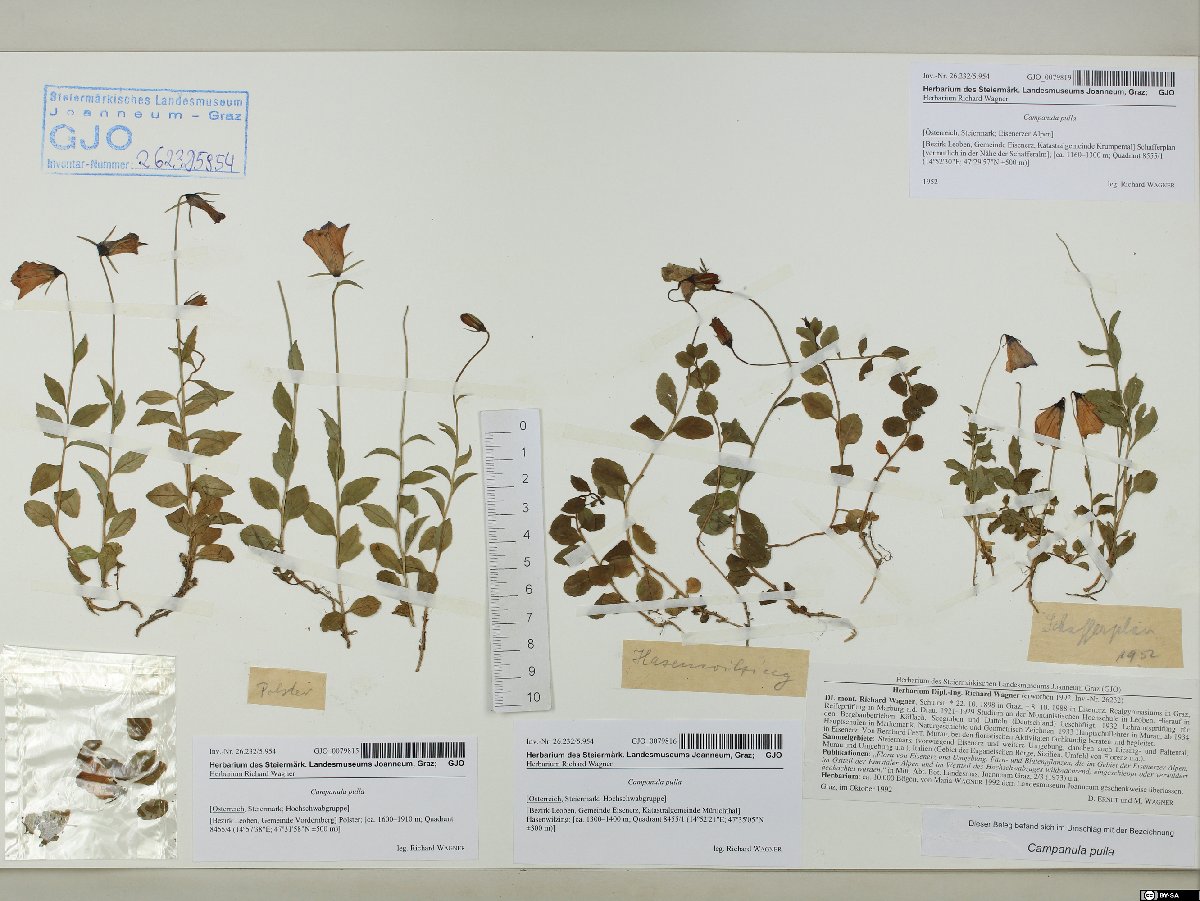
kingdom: Plantae
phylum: Tracheophyta
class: Magnoliopsida
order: Asterales
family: Campanulaceae
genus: Campanula
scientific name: Campanula pulla
